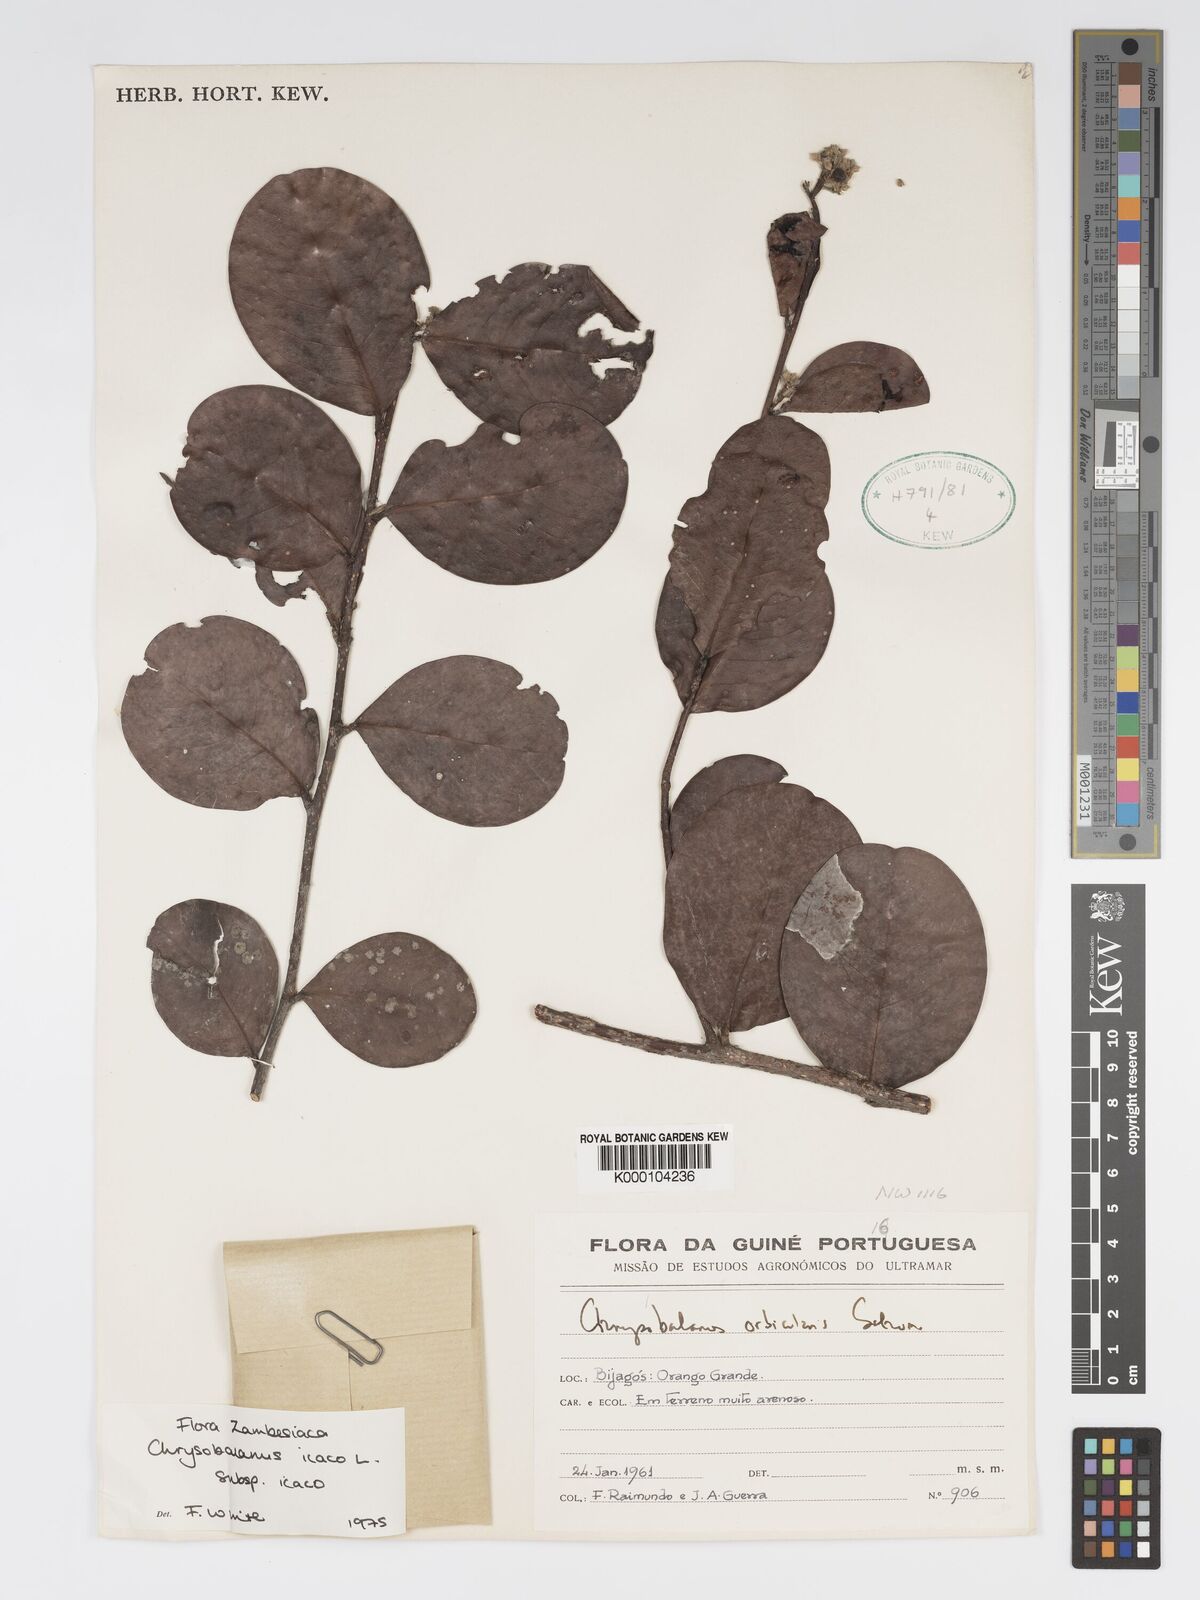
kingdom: Plantae
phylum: Tracheophyta
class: Magnoliopsida
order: Malpighiales
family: Chrysobalanaceae
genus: Chrysobalanus
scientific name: Chrysobalanus icaco
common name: Coco plum
